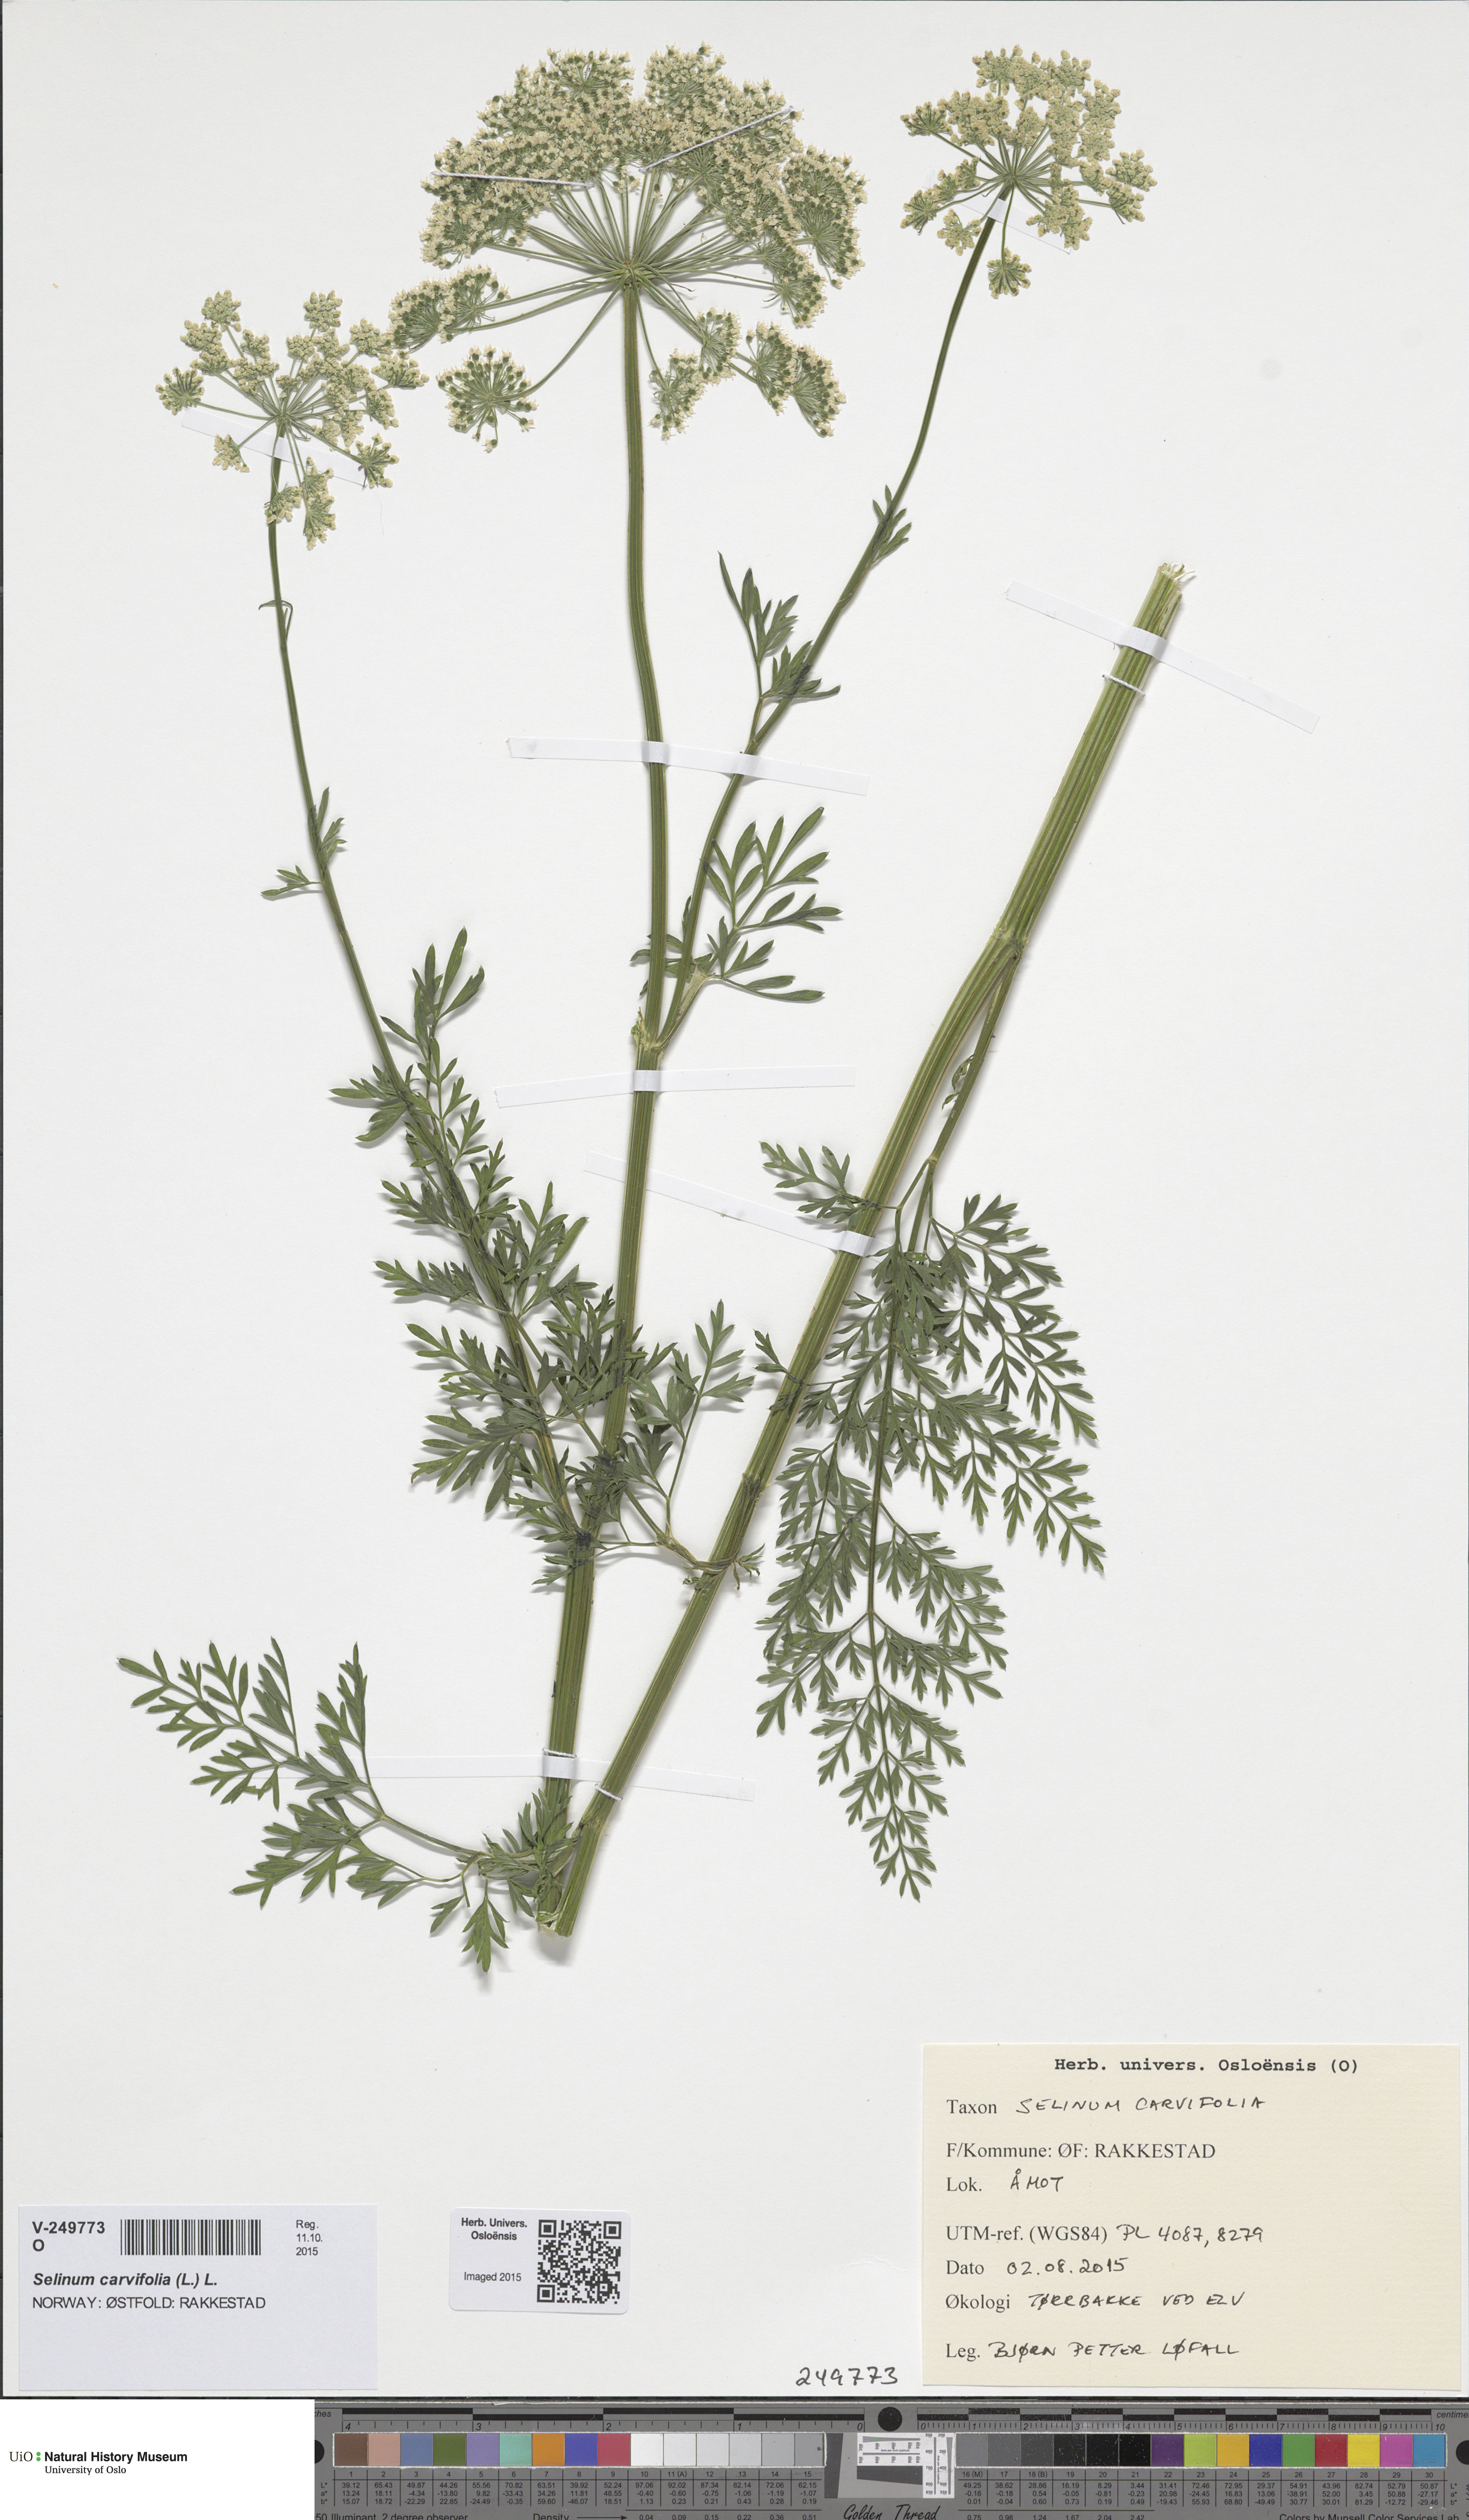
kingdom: Plantae
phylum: Tracheophyta
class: Magnoliopsida
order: Apiales
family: Apiaceae
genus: Selinum
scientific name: Selinum carvifolia
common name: Cambridge milk-parsley
